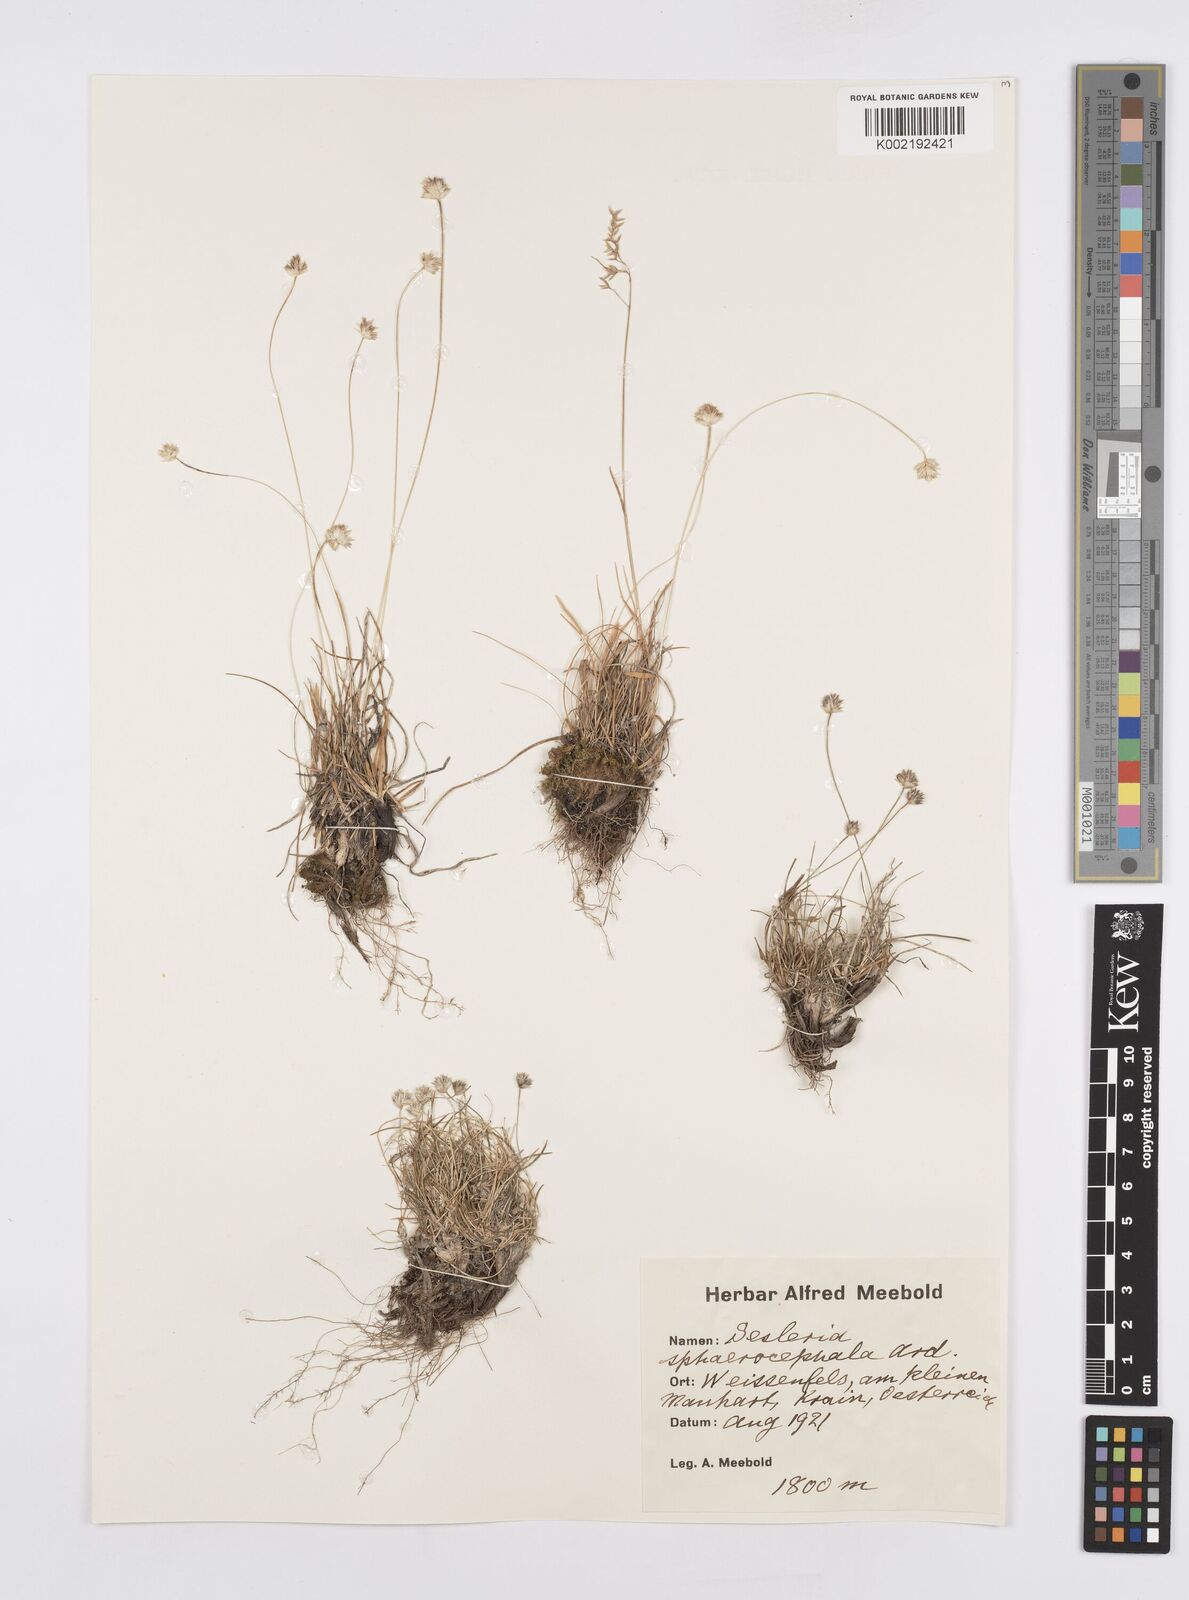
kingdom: Plantae
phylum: Tracheophyta
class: Liliopsida
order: Poales
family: Poaceae
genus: Sesleriella
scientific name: Sesleriella sphaerocephala
